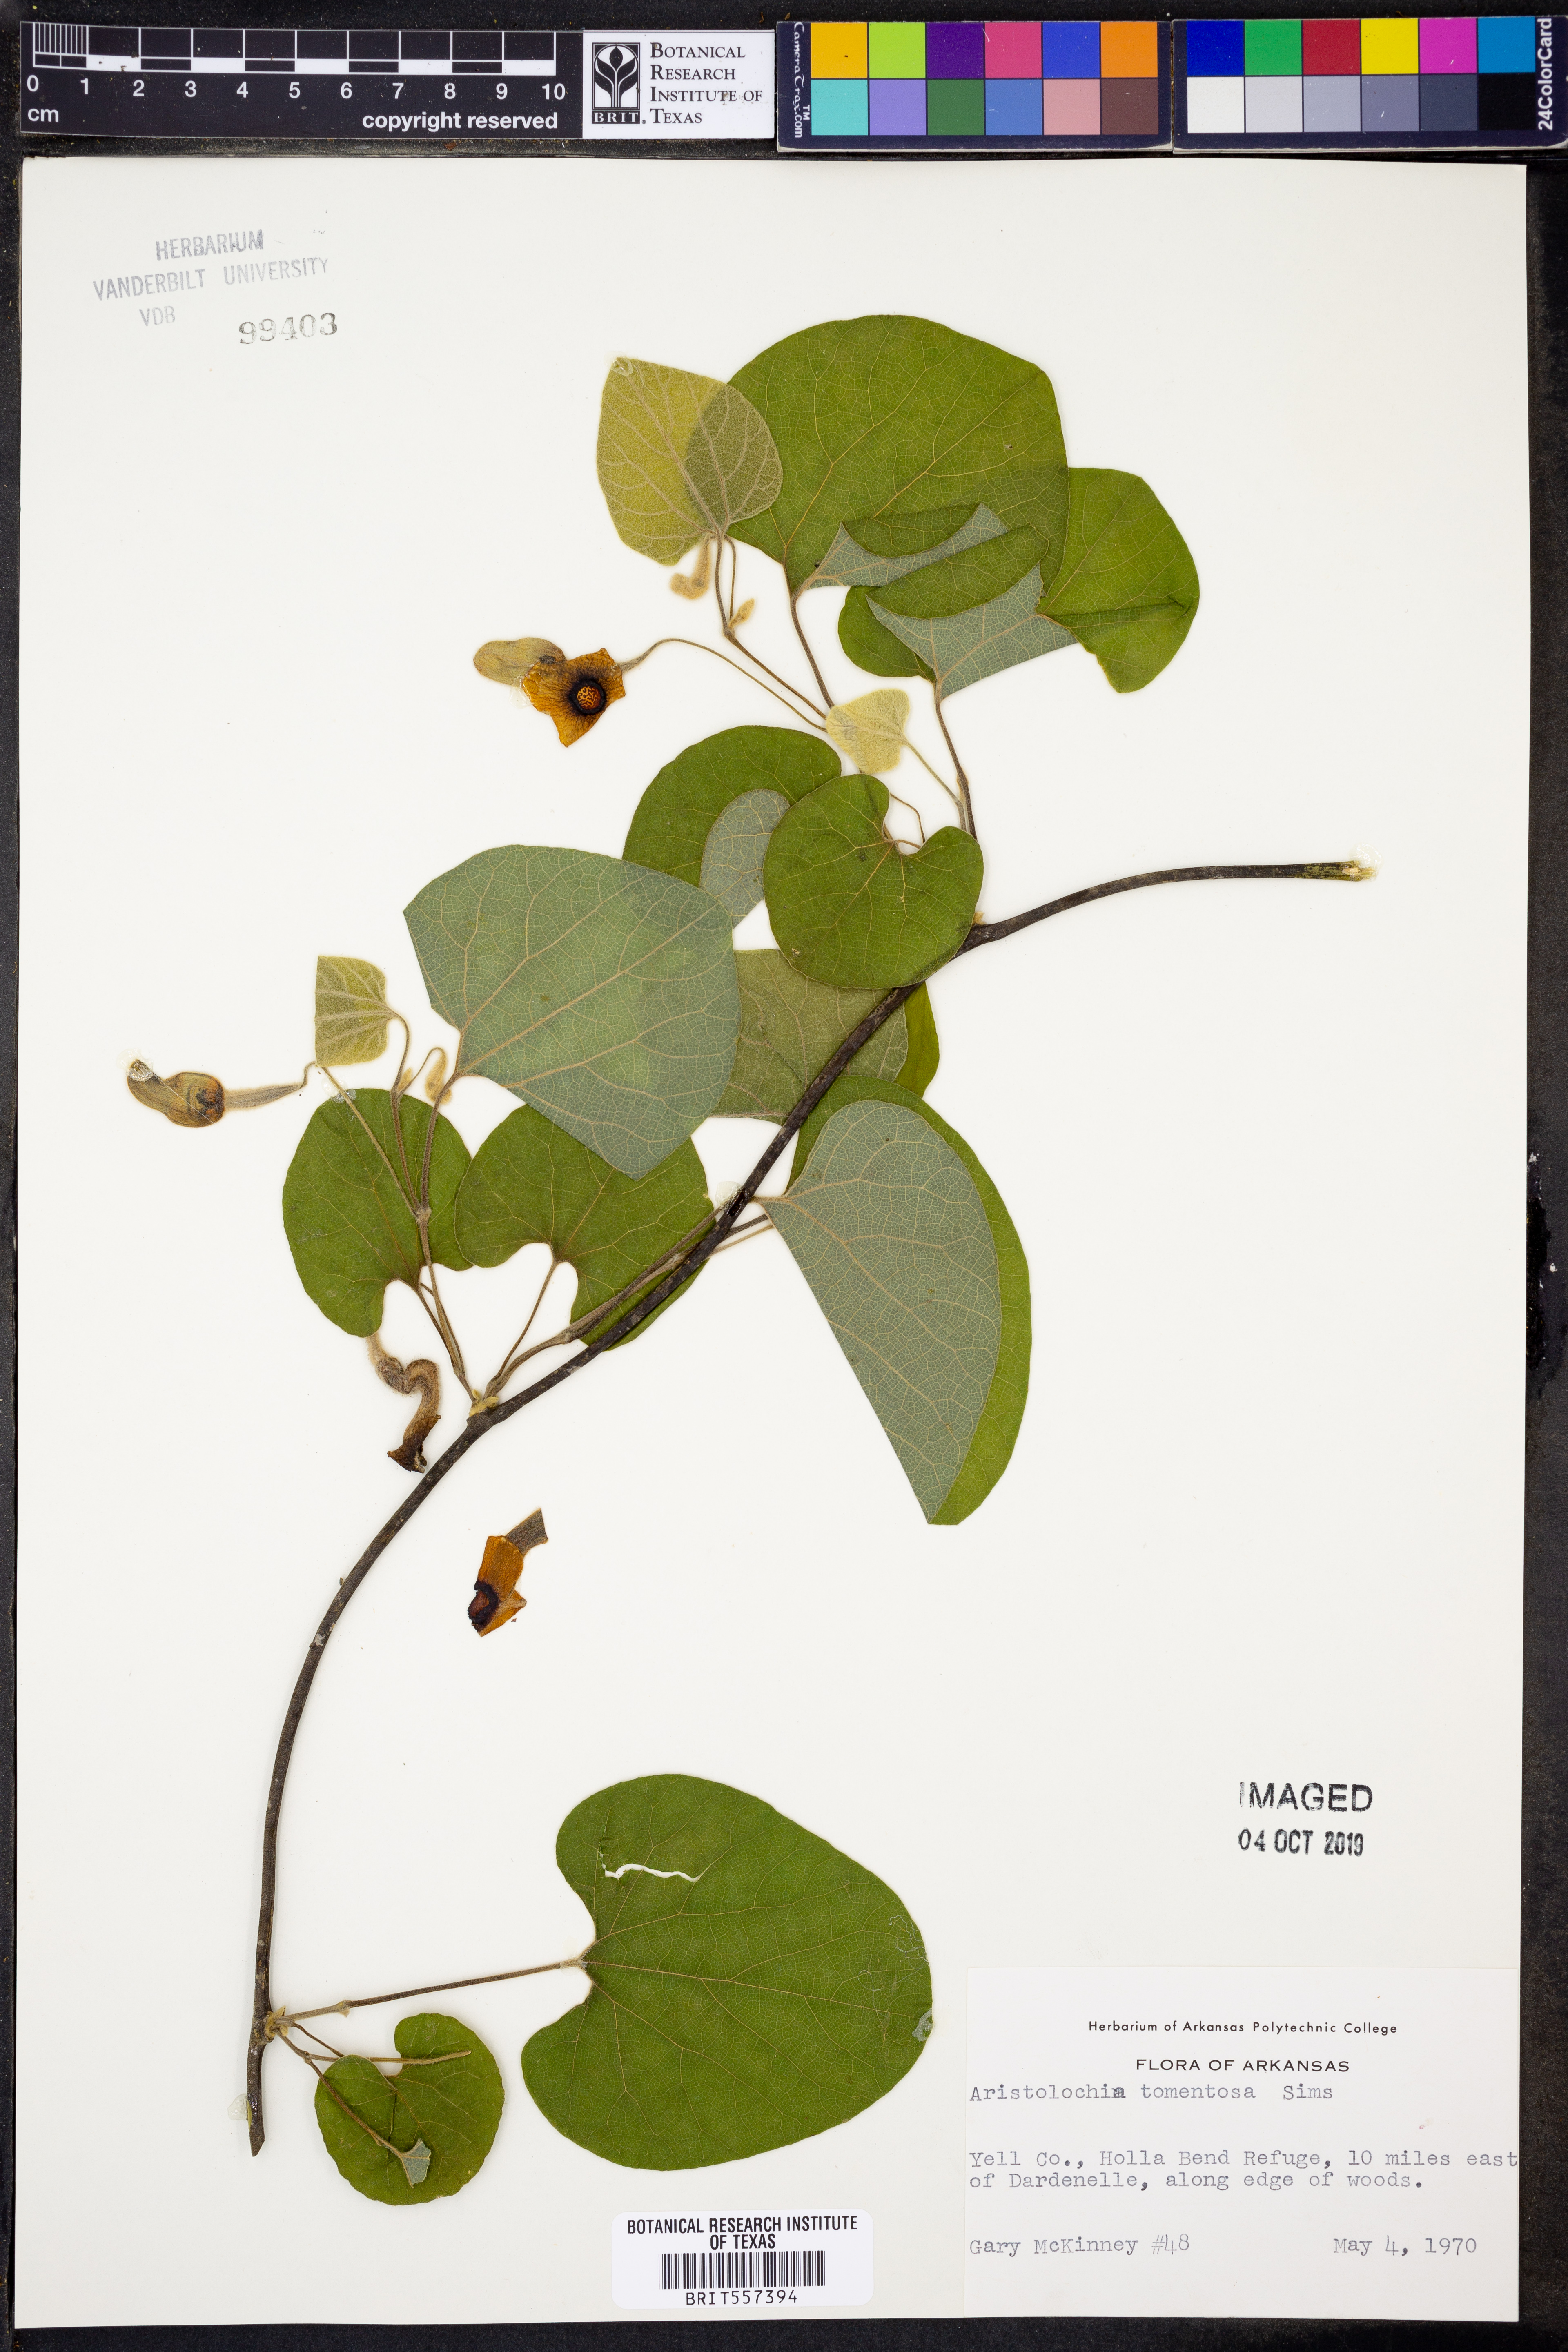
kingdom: Plantae
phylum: Tracheophyta
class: Magnoliopsida
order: Piperales
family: Aristolochiaceae
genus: Isotrema
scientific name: Isotrema tomentosum
